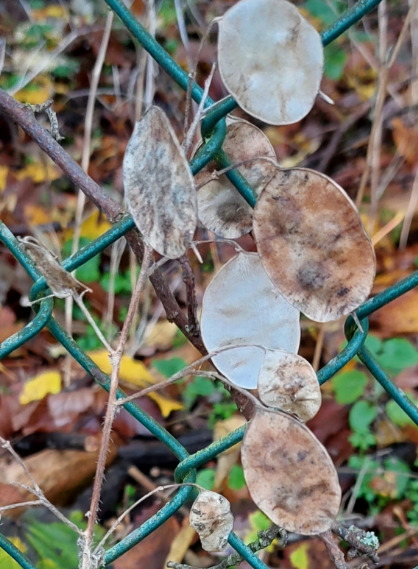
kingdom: Plantae
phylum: Tracheophyta
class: Magnoliopsida
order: Brassicales
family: Brassicaceae
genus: Lunaria
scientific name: Lunaria annua
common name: Judaspenge
